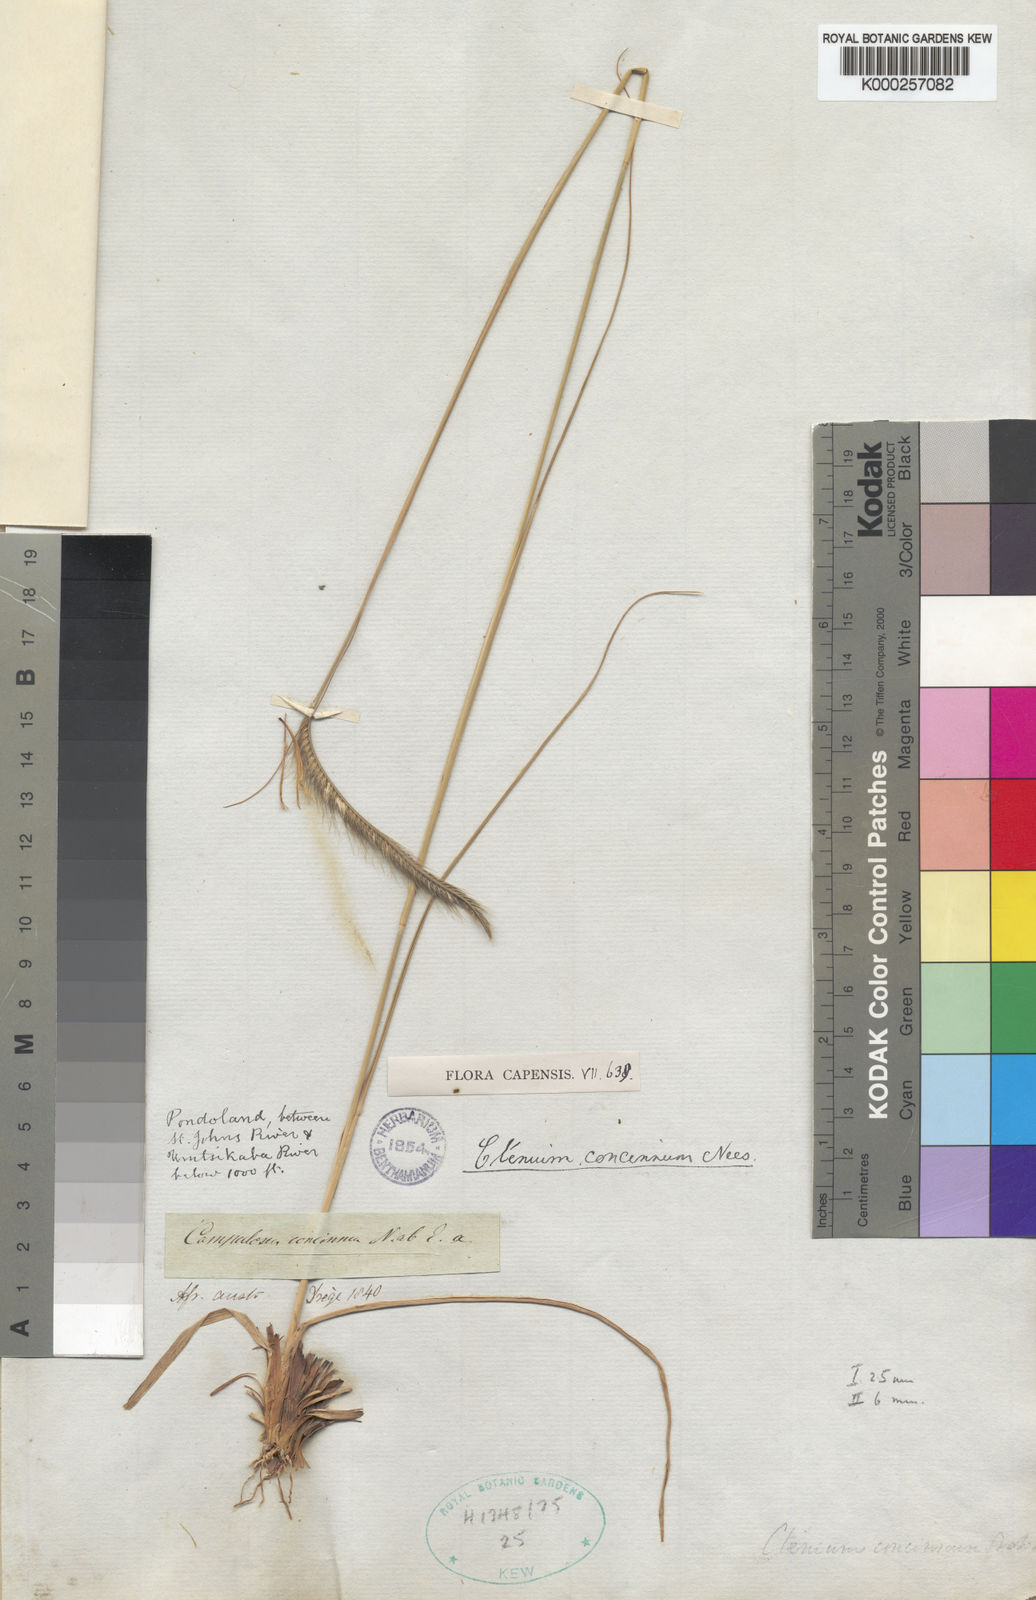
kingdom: Plantae
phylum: Tracheophyta
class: Liliopsida
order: Poales
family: Poaceae
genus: Ctenium
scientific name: Ctenium concinnum
